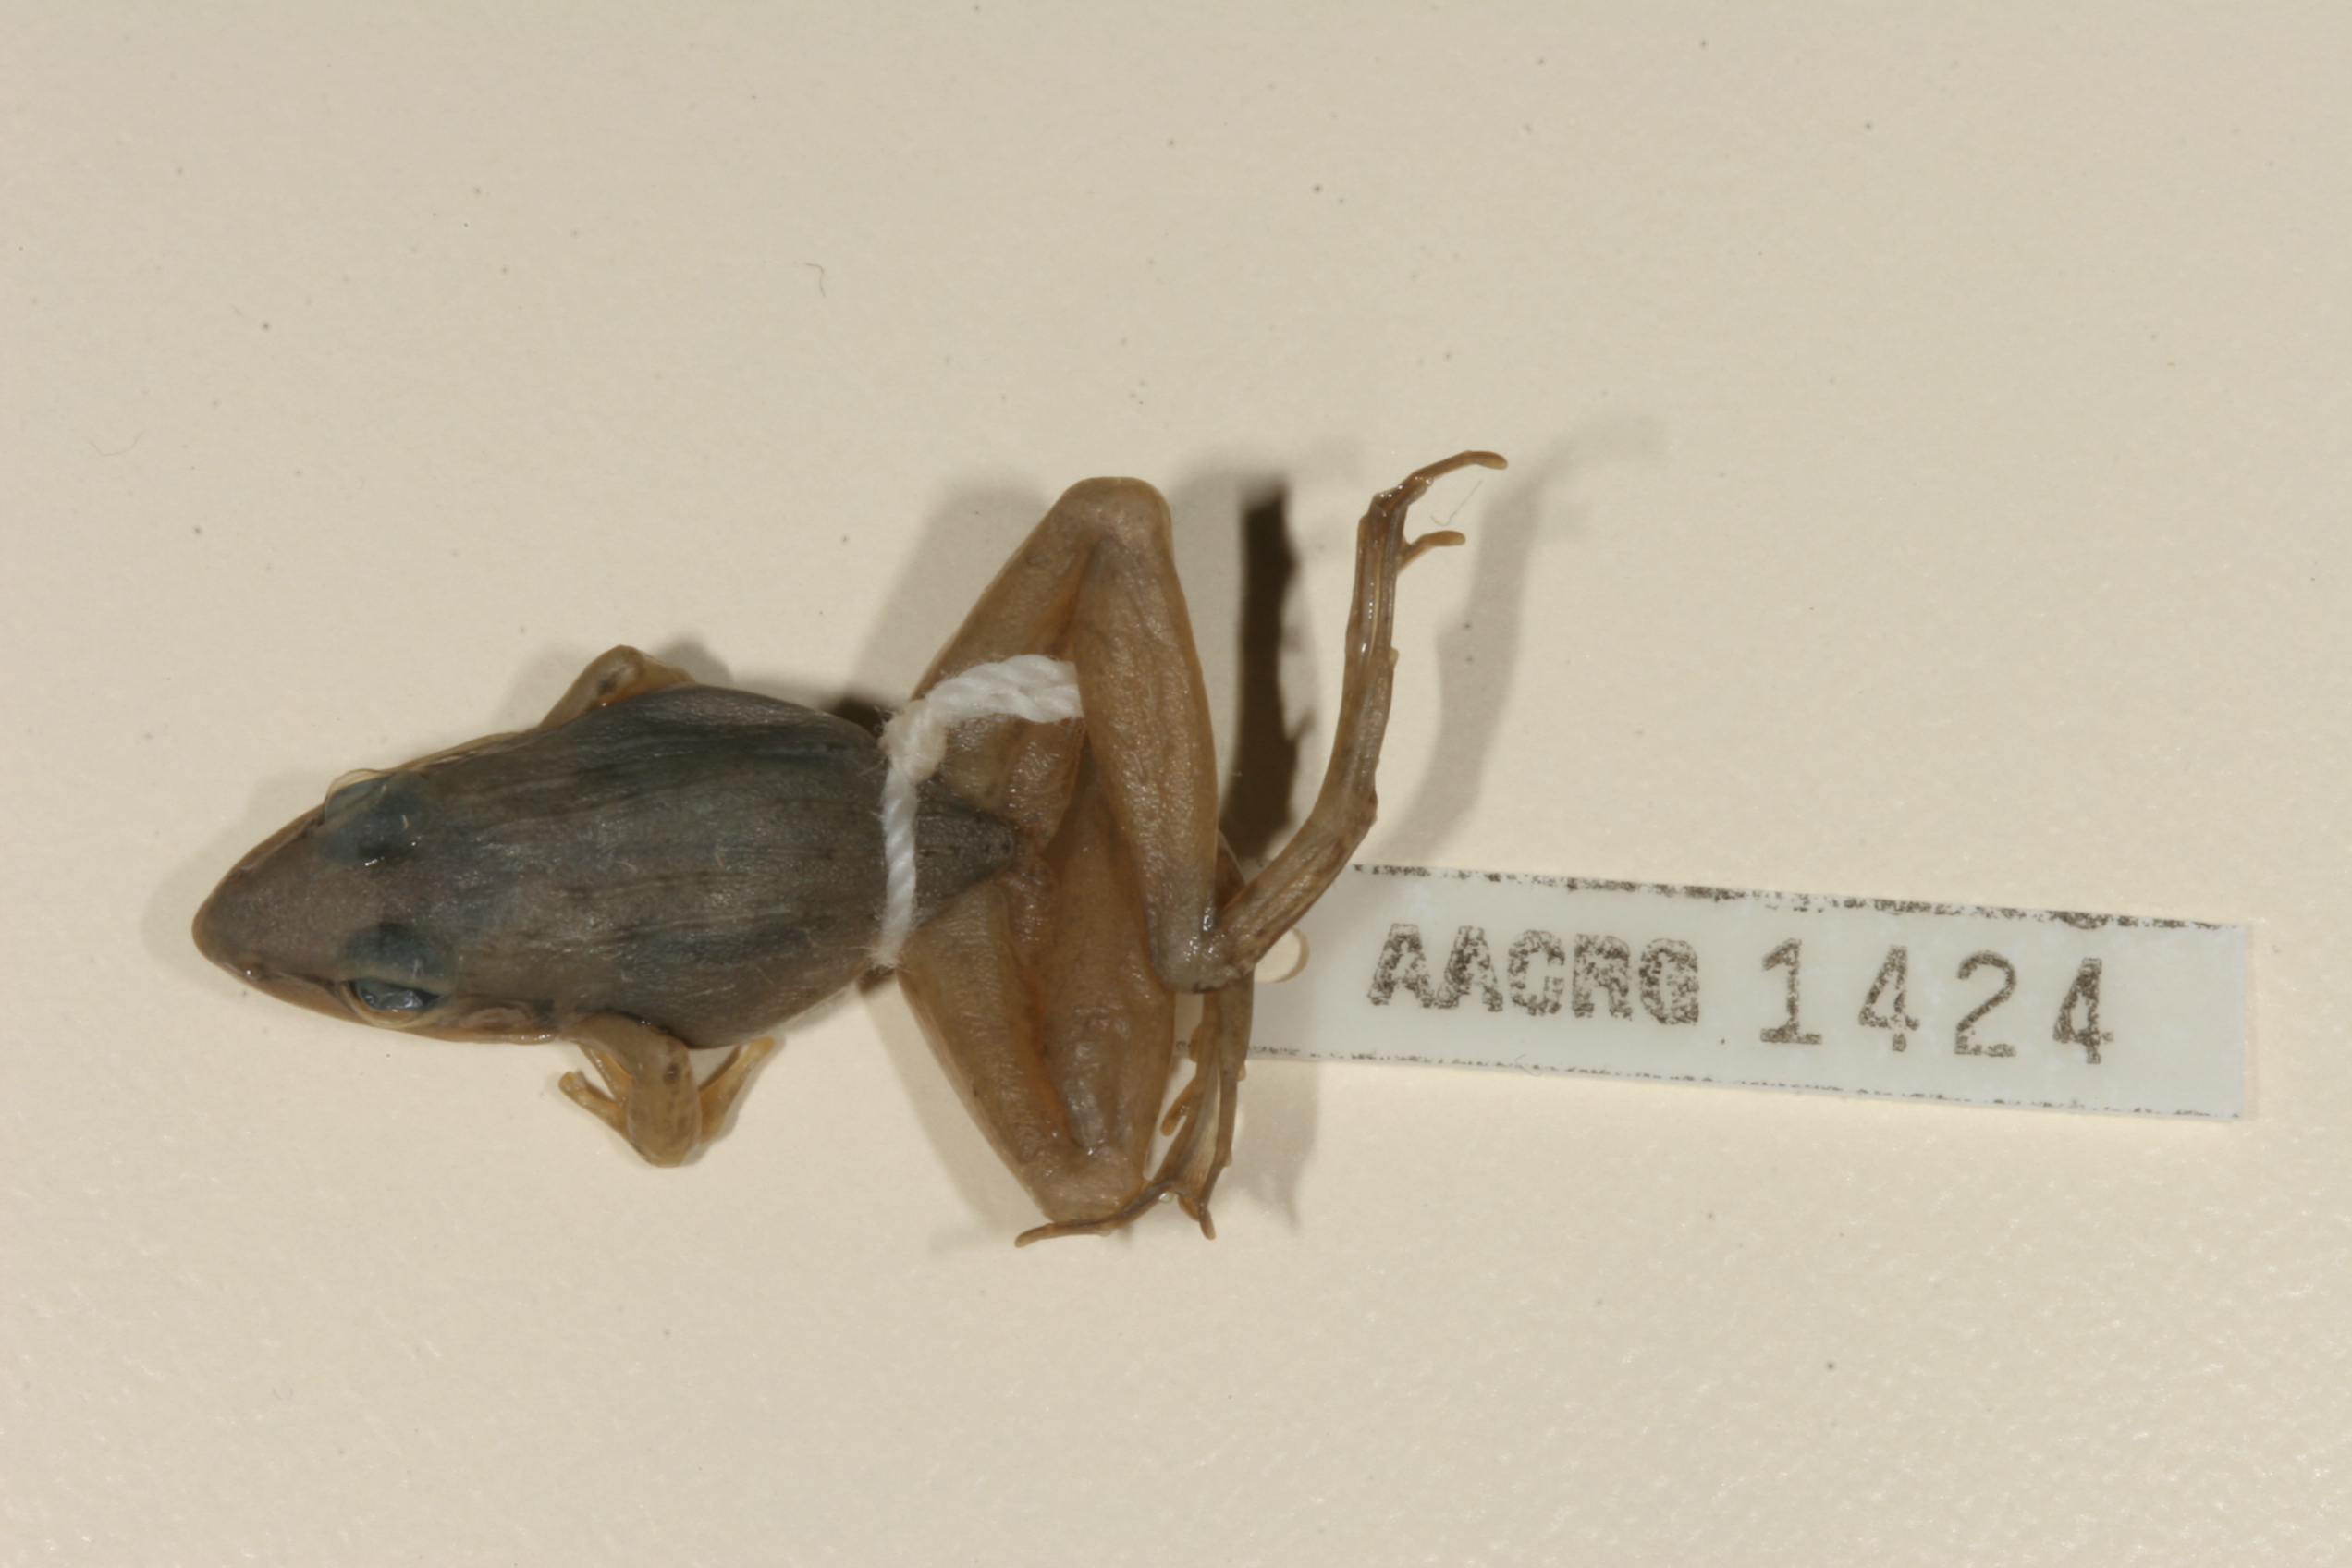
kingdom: Animalia
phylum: Chordata
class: Amphibia
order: Anura
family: Ptychadenidae
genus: Ptychadena
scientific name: Ptychadena anchietae
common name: Anchieta's ridged frog
